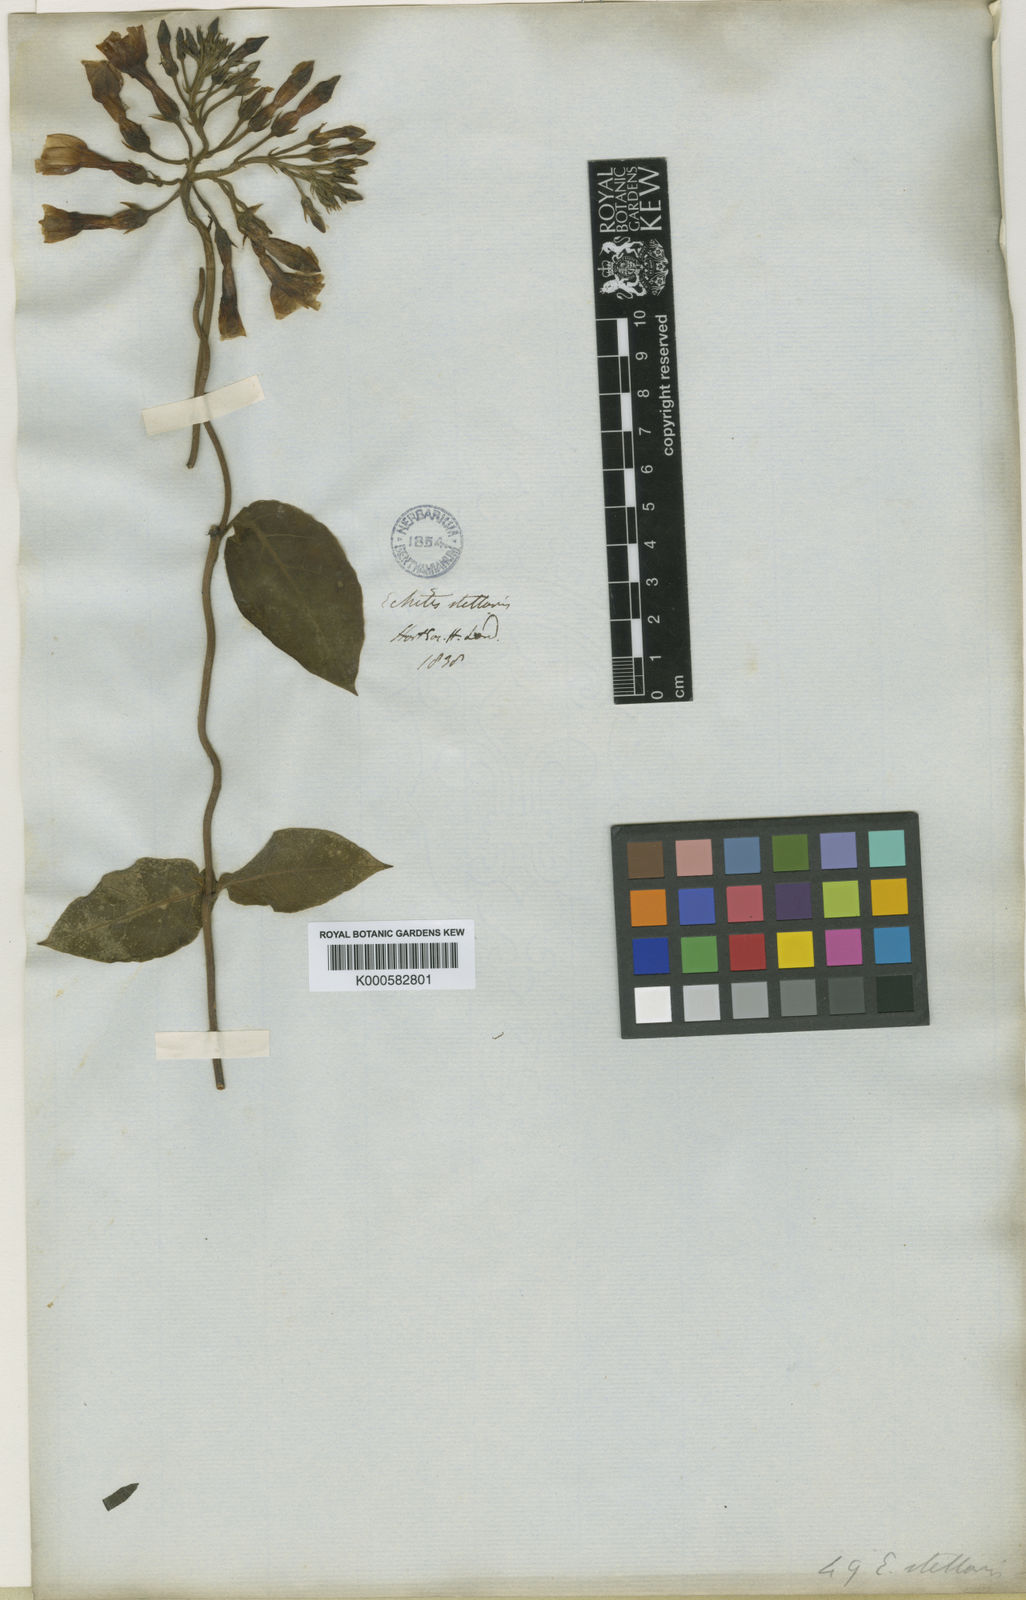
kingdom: Plantae
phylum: Tracheophyta
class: Magnoliopsida
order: Gentianales
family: Apocynaceae
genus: Temnadenia
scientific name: Temnadenia odorifera
